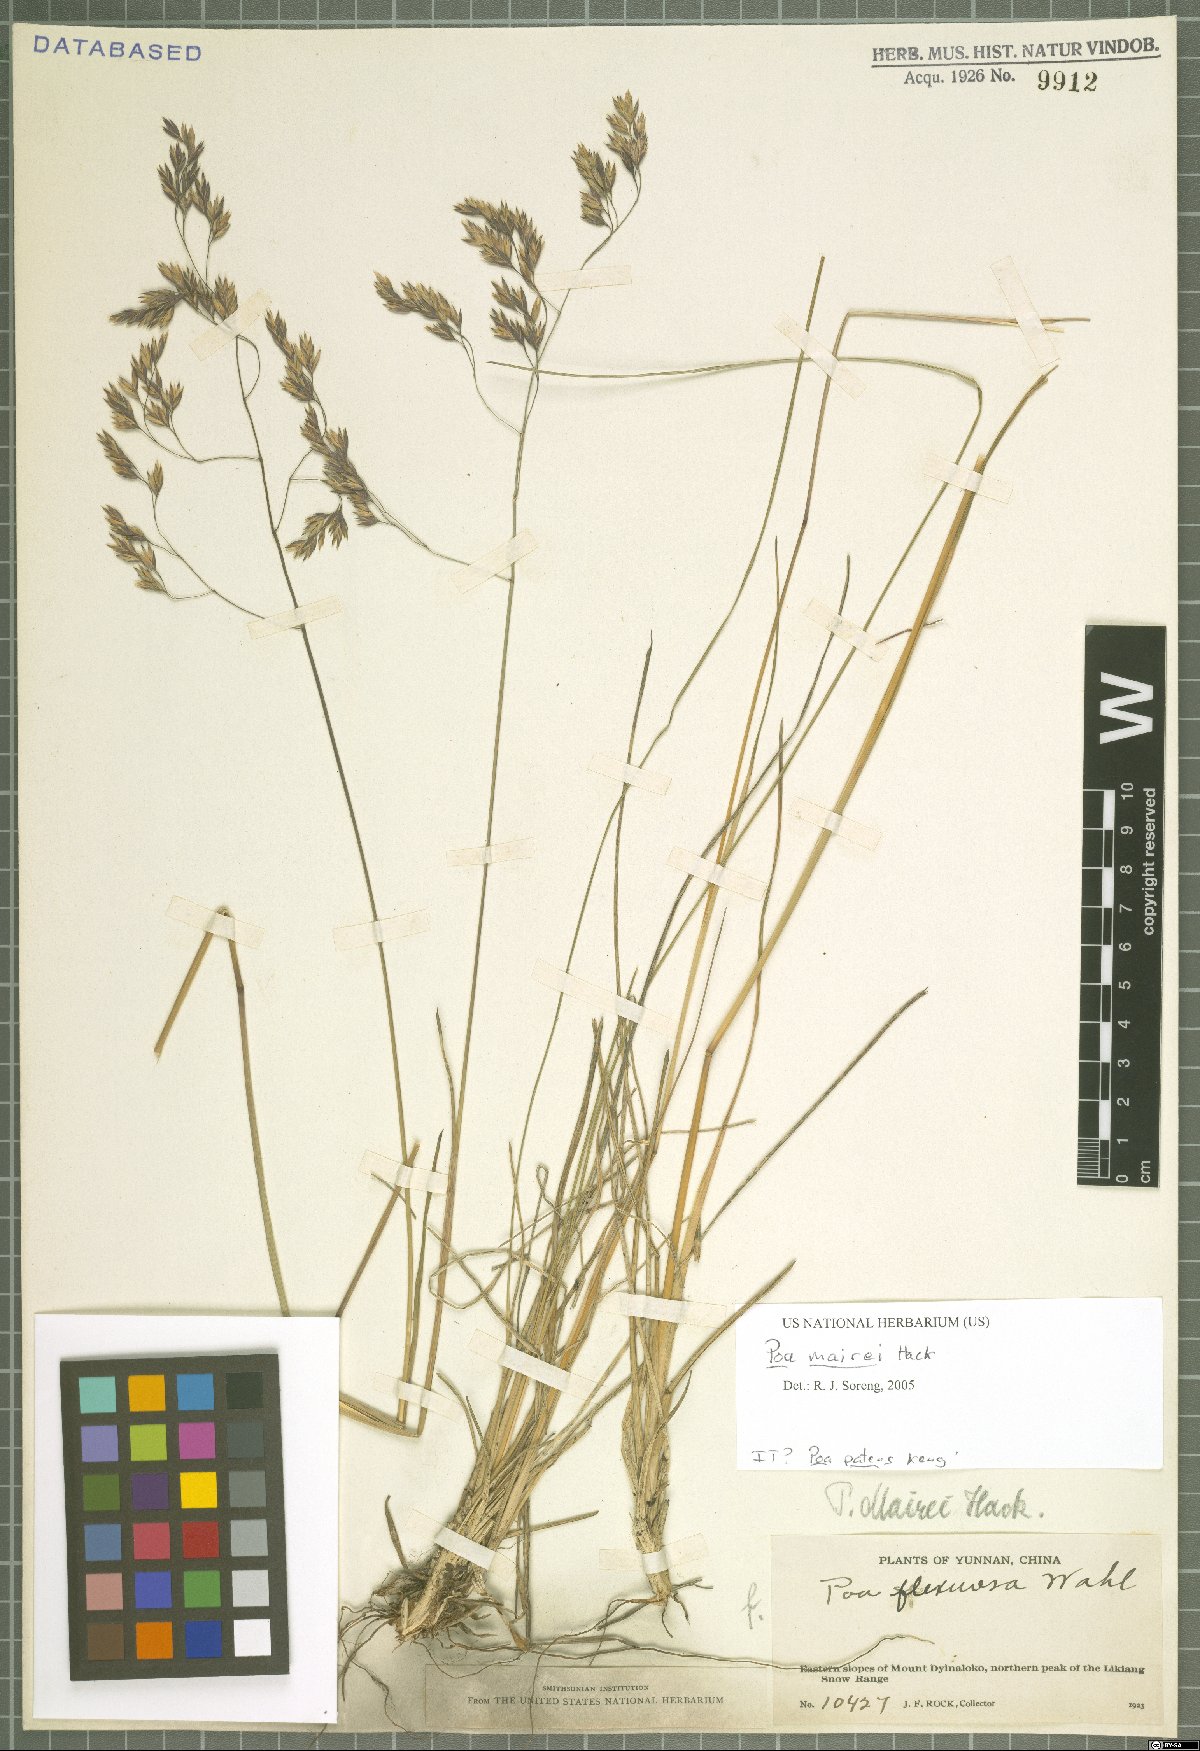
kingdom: Plantae
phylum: Tracheophyta
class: Liliopsida
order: Poales
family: Poaceae
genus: Poa
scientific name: Poa mairei
